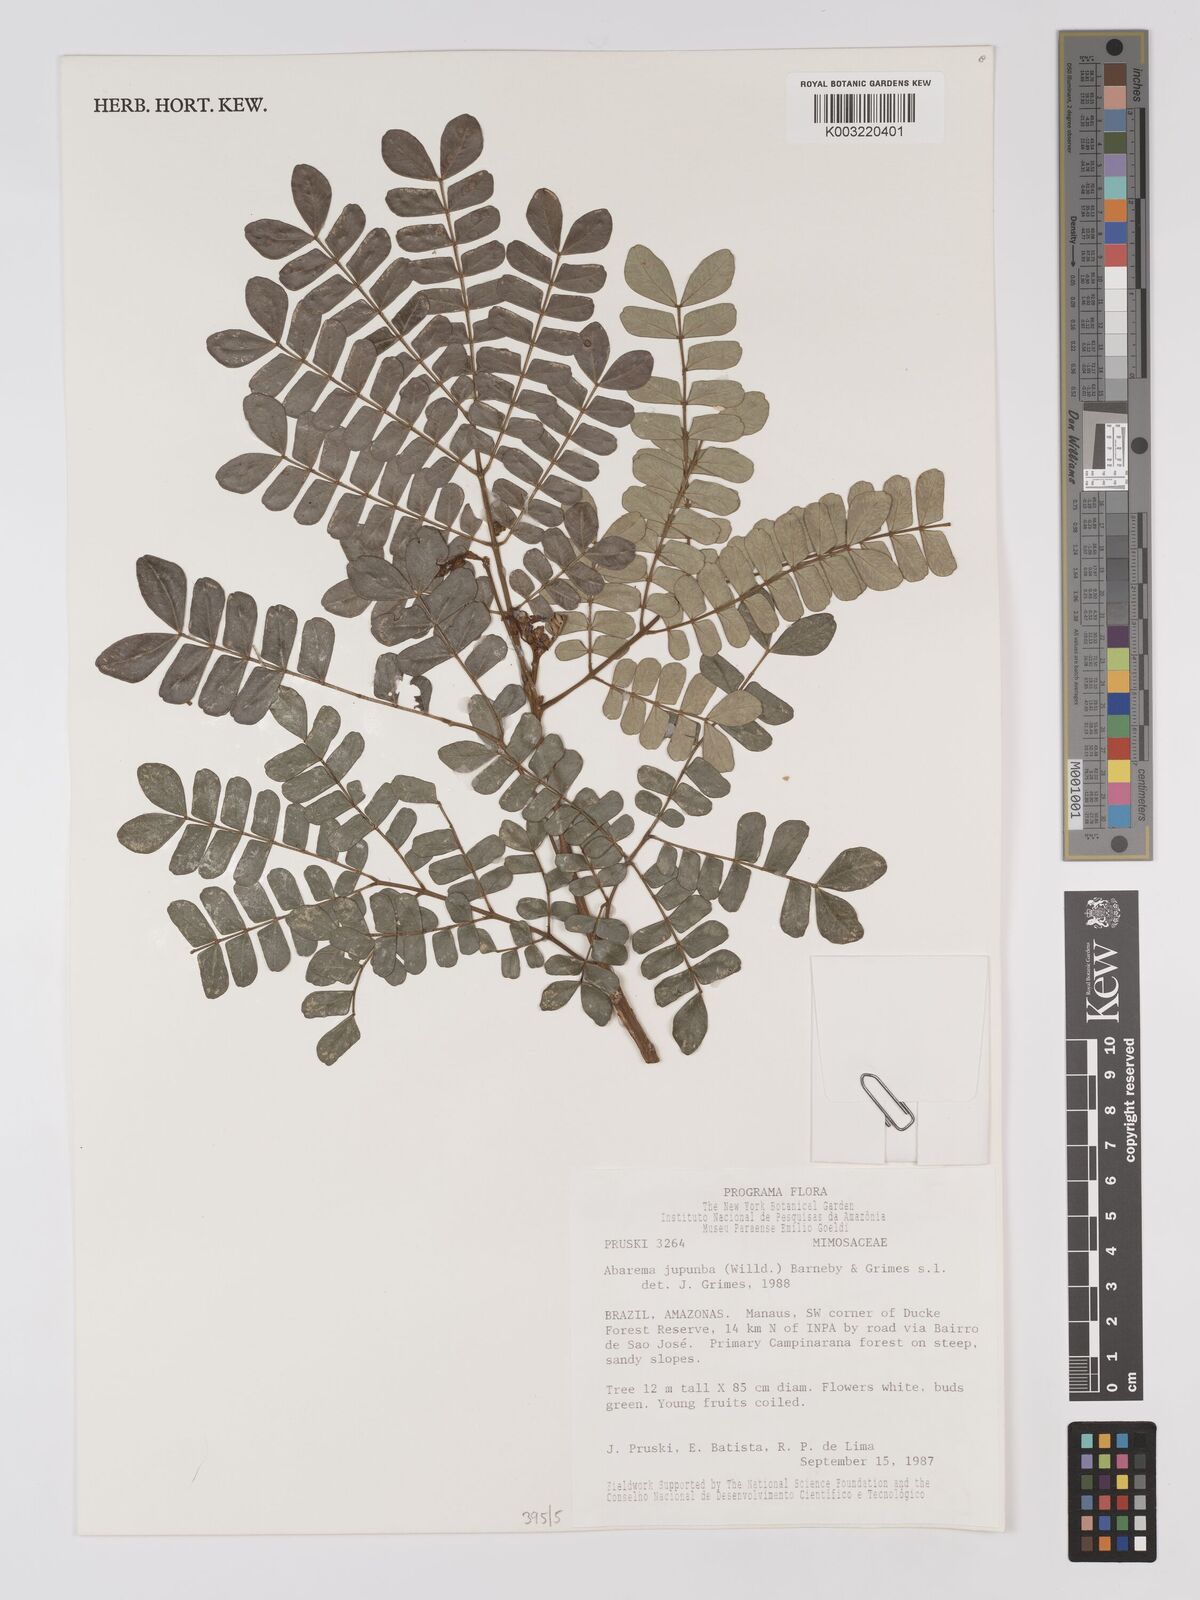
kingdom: Plantae
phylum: Tracheophyta
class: Magnoliopsida
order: Fabales
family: Fabaceae
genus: Jupunba
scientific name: Jupunba trapezifolia
